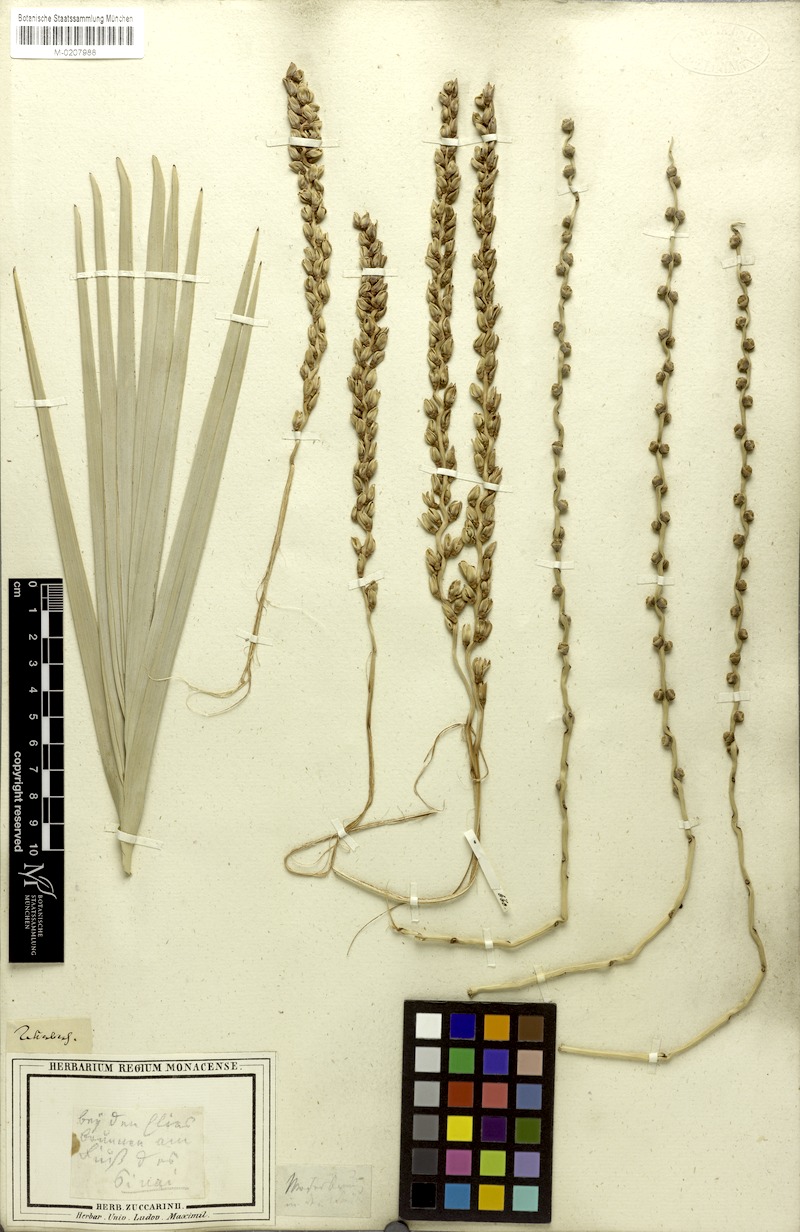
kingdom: Plantae
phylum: Tracheophyta
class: Liliopsida
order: Arecales
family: Arecaceae
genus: Phoenix
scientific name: Phoenix dactylifera
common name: Date palm
